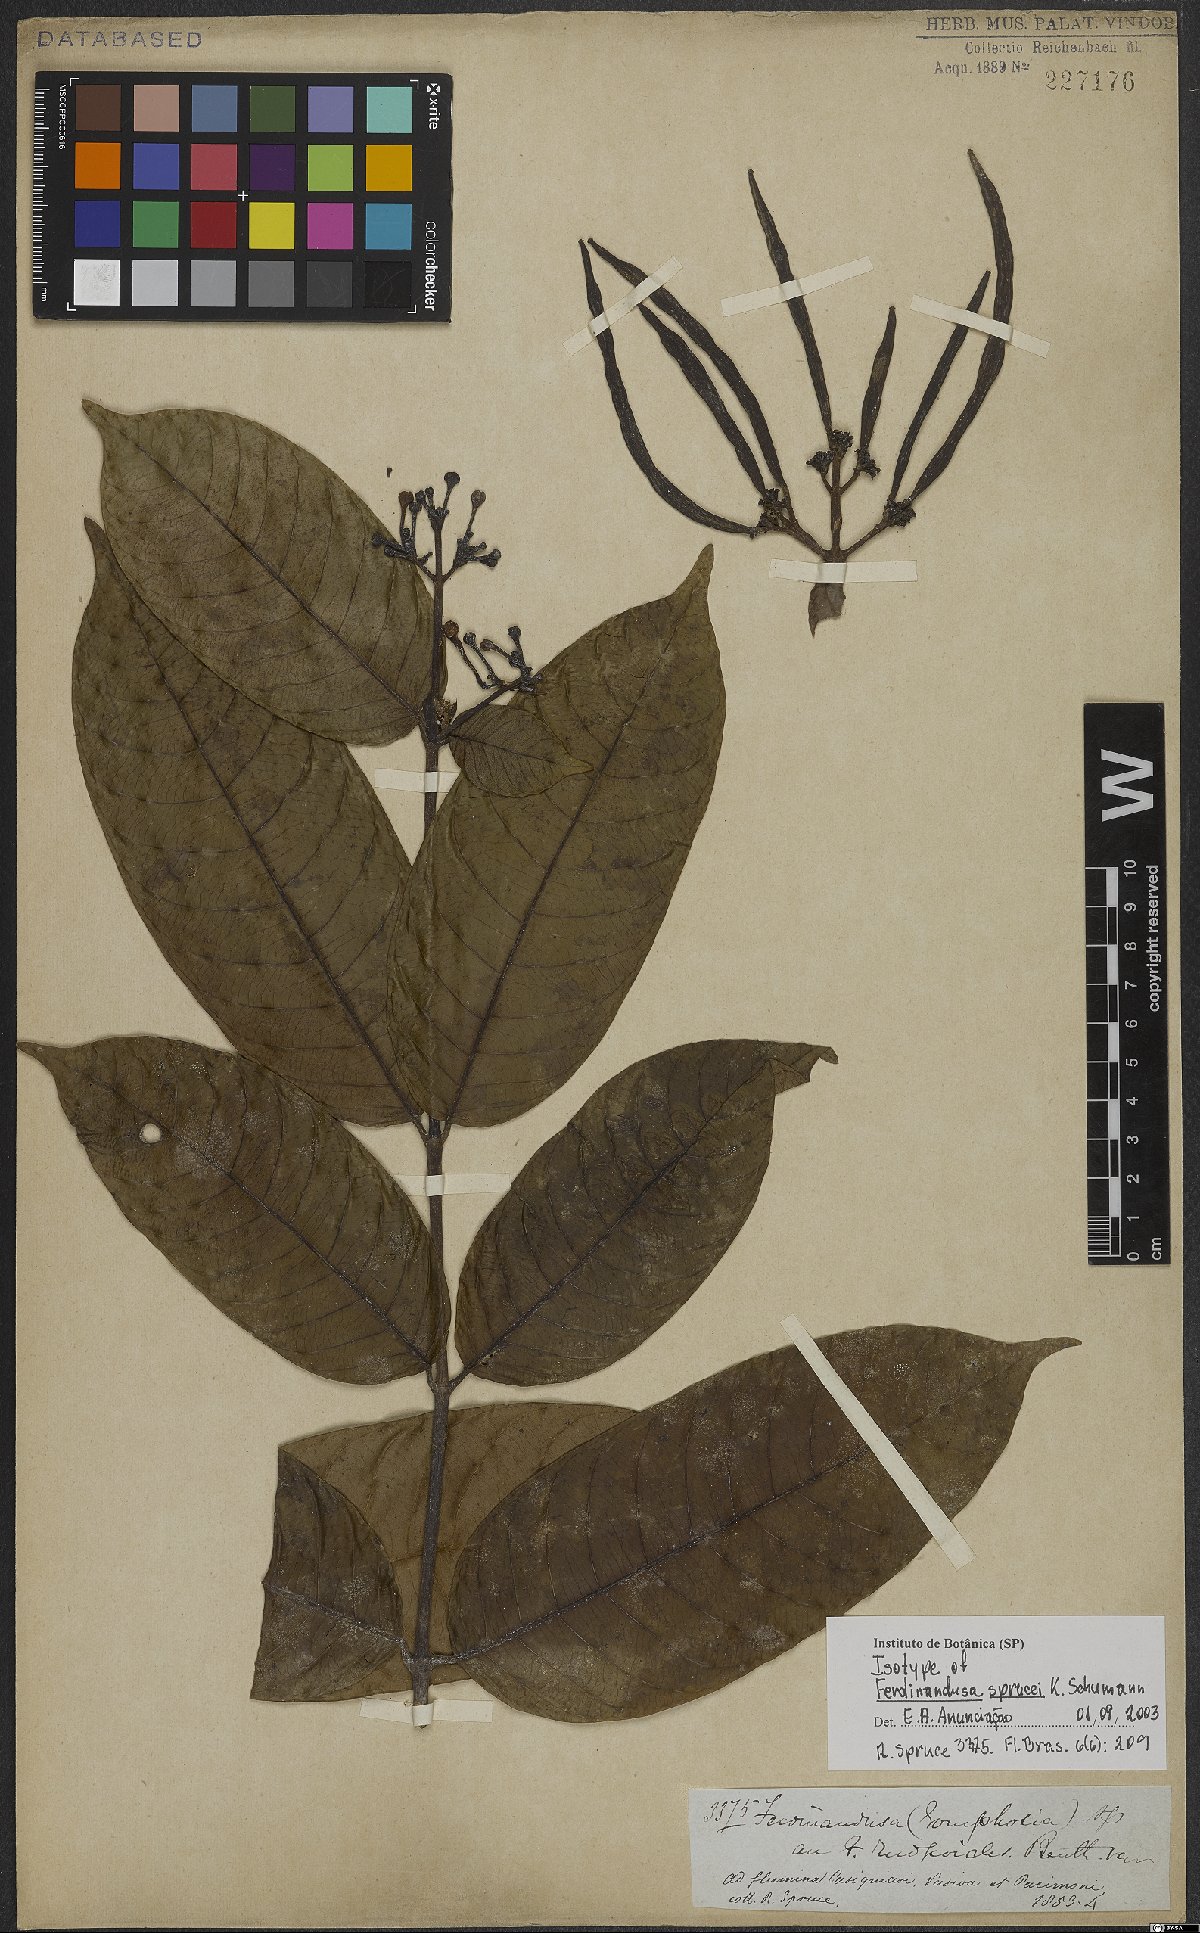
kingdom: Plantae
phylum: Tracheophyta
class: Magnoliopsida
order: Gentianales
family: Rubiaceae
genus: Ferdinandusa
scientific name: Ferdinandusa sprucei
